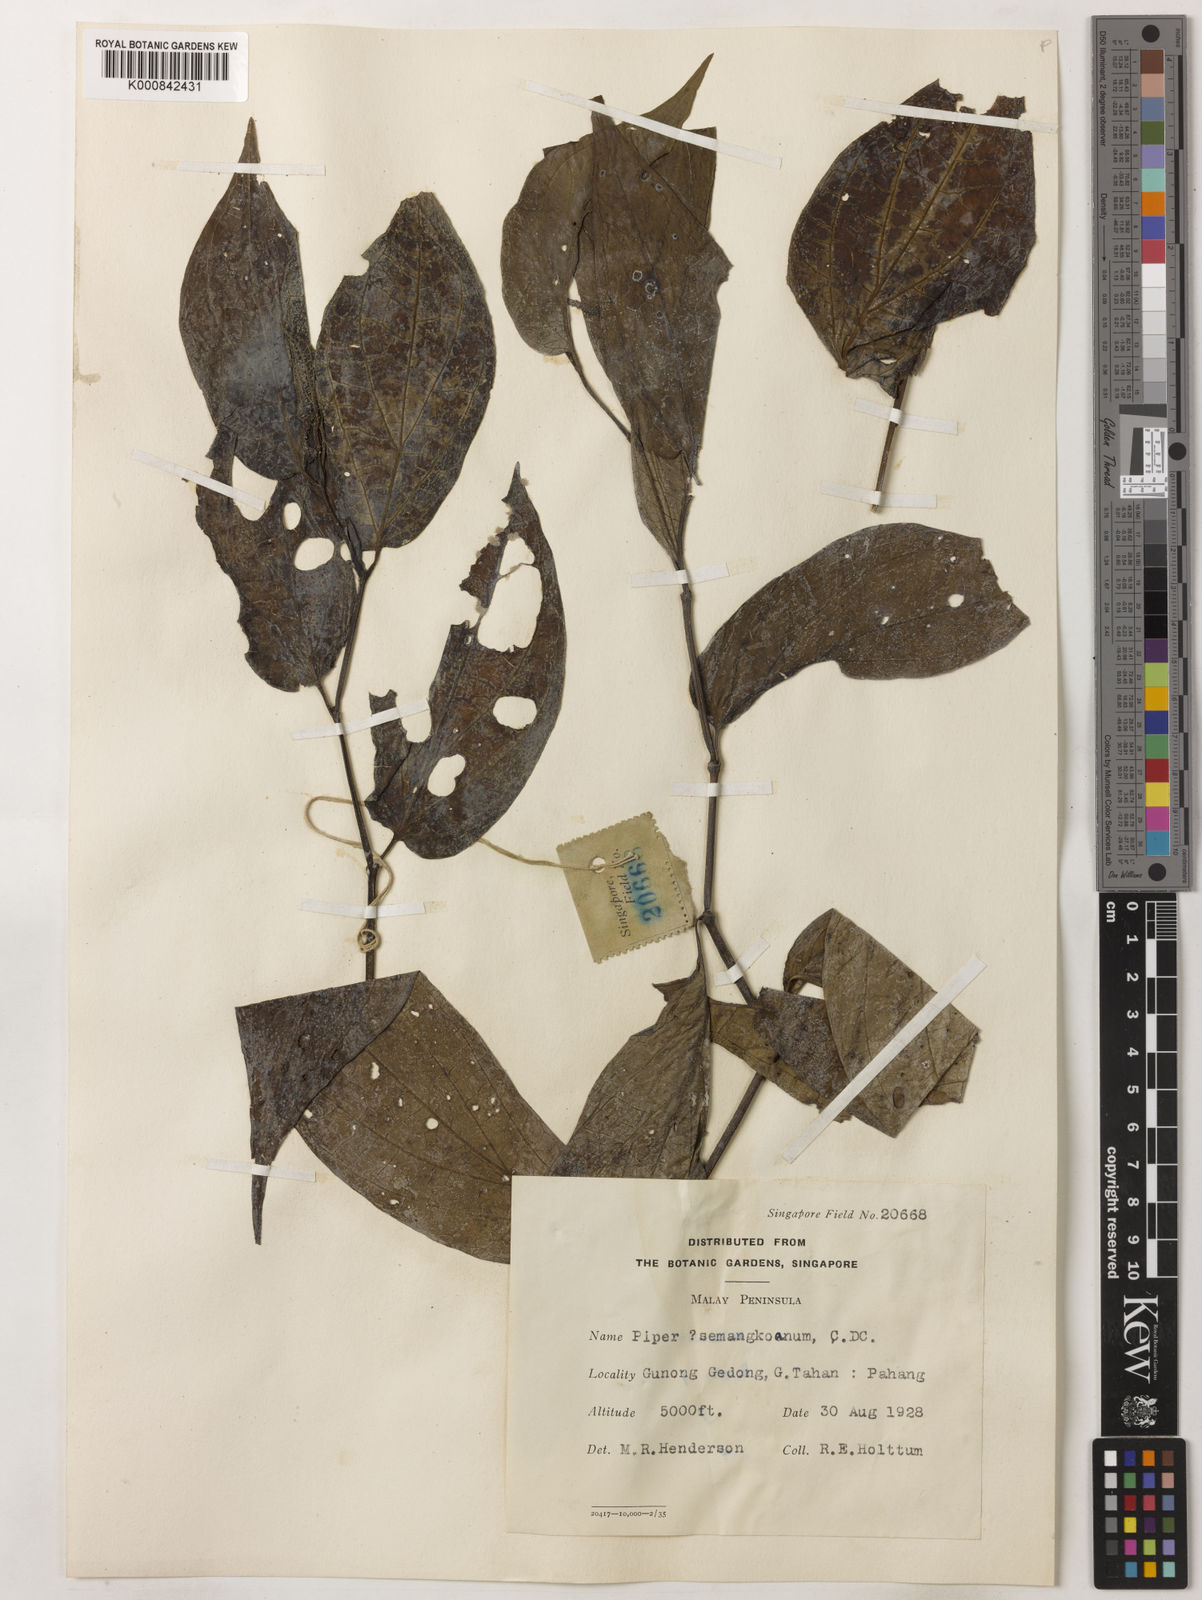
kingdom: Plantae
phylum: Tracheophyta
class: Magnoliopsida
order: Piperales
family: Piperaceae
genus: Piper
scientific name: Piper semangkoanum
